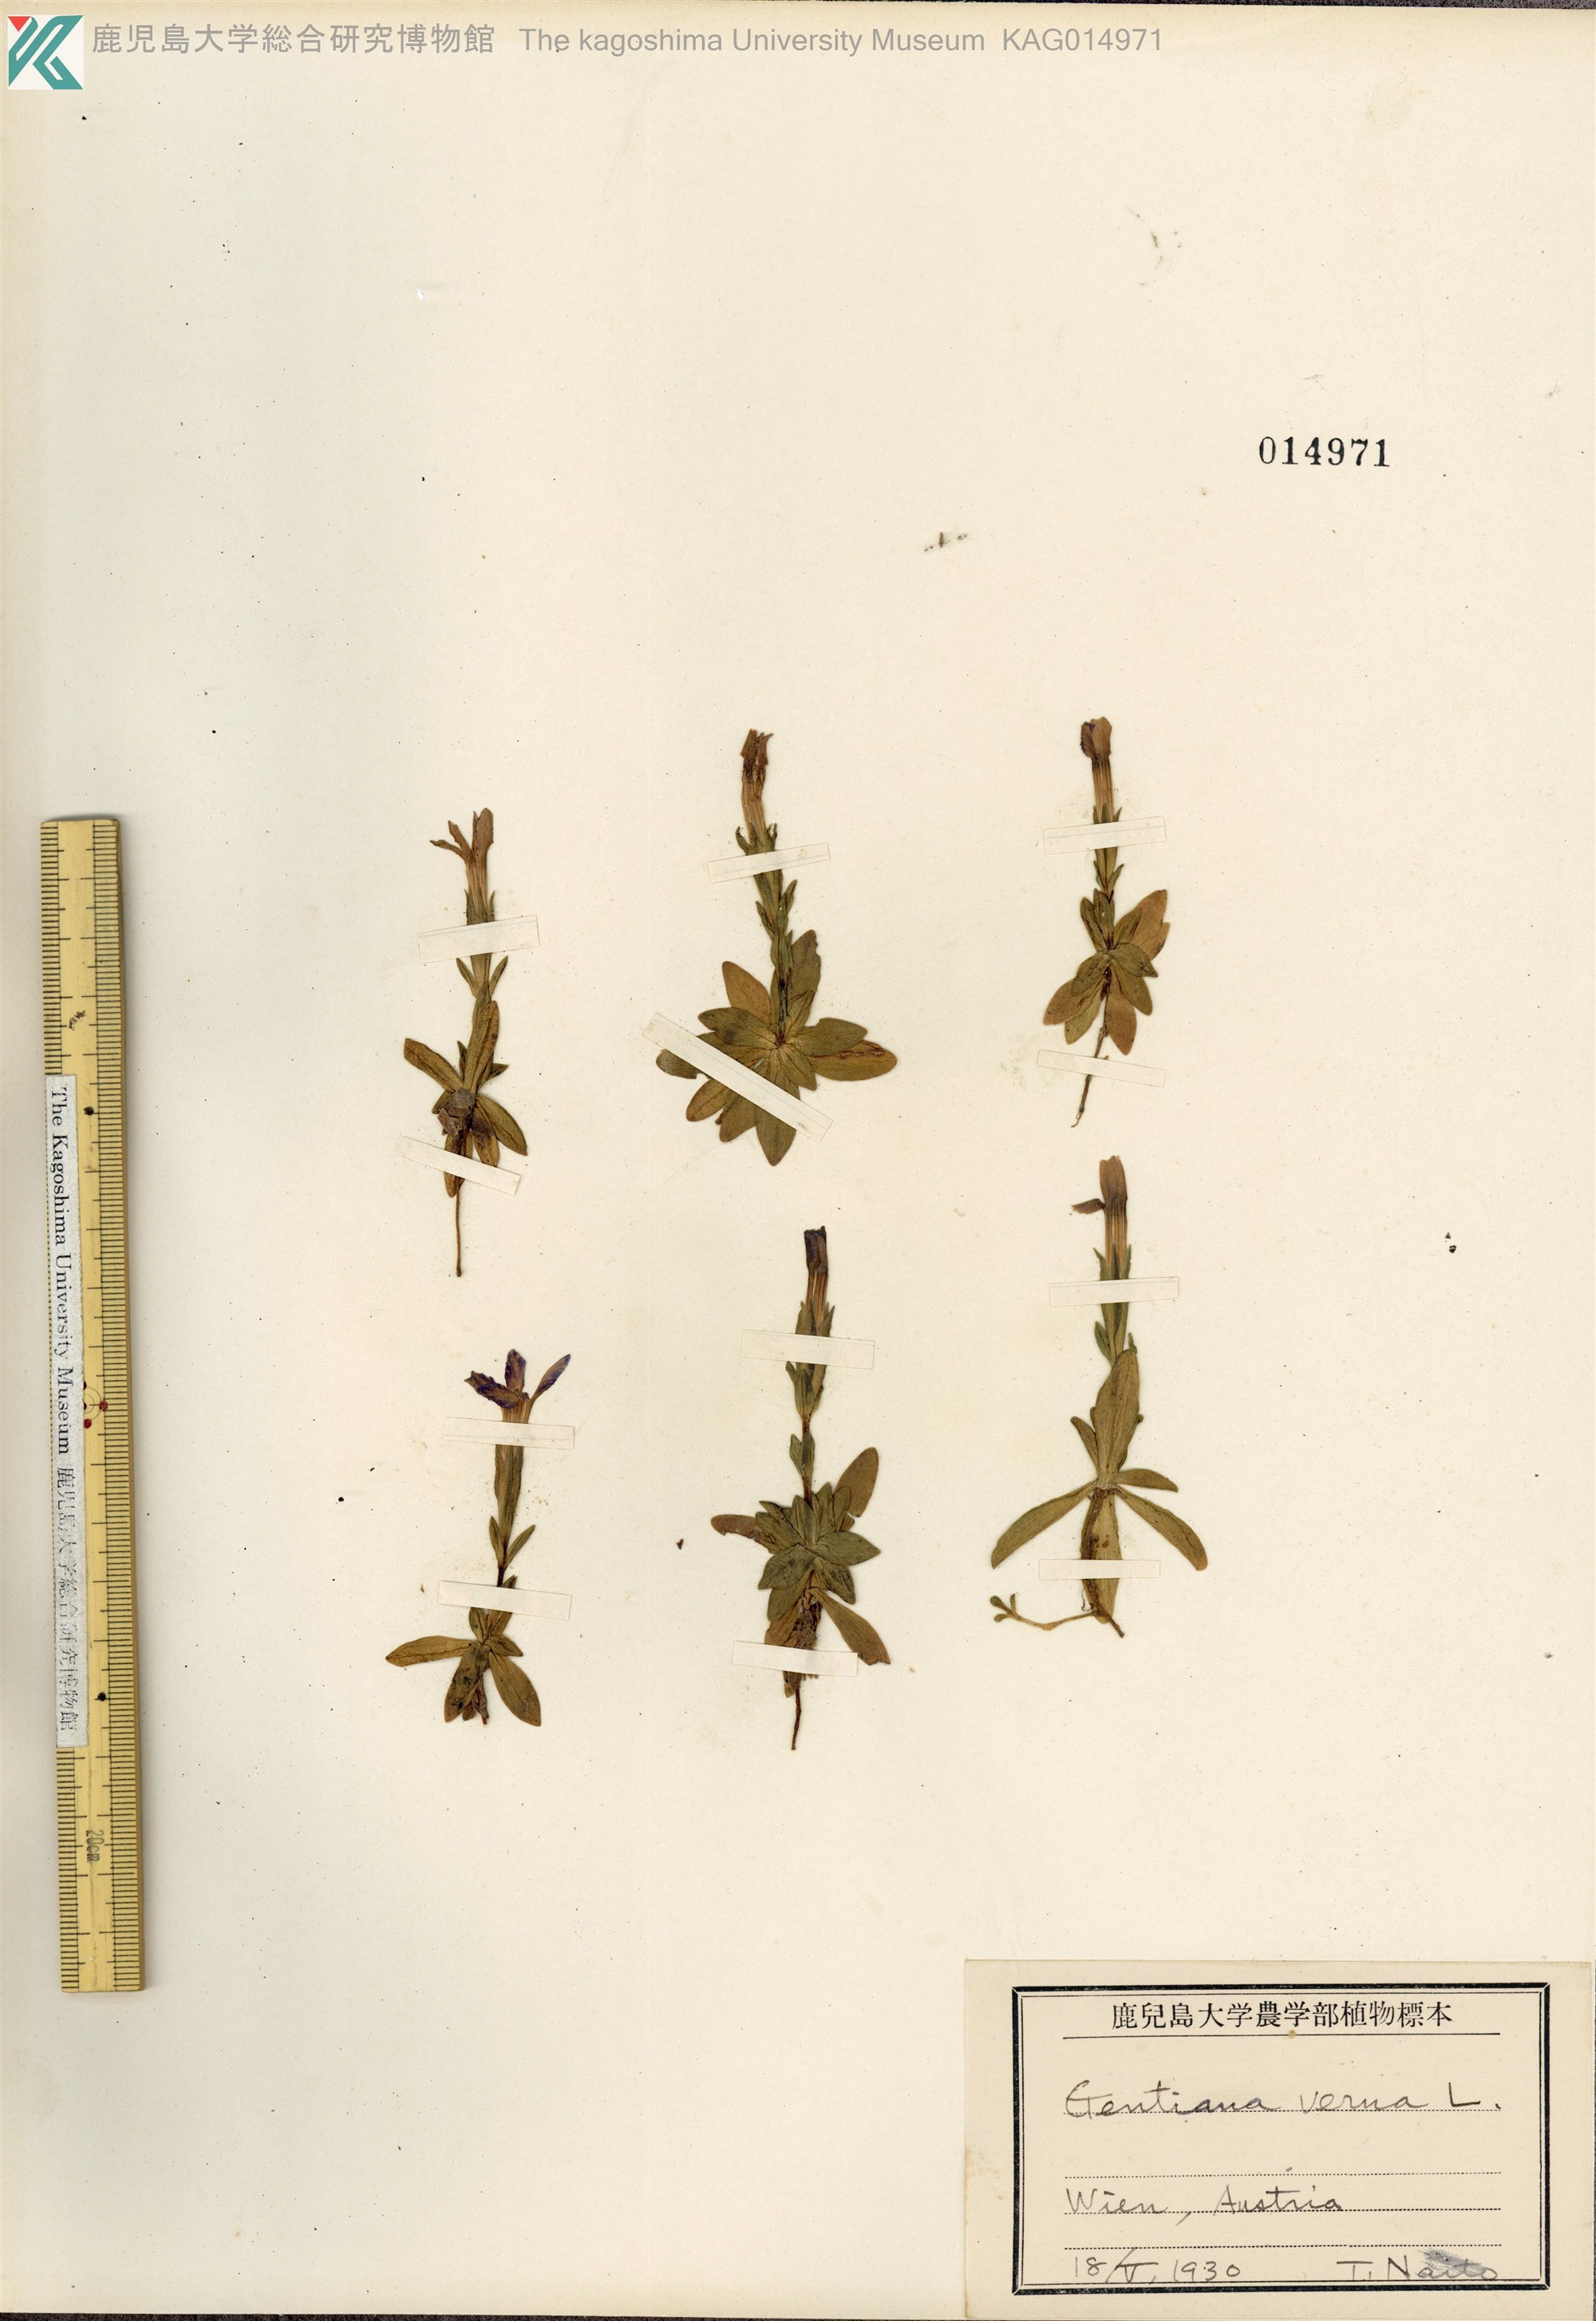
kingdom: Plantae
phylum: Tracheophyta
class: Magnoliopsida
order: Gentianales
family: Gentianaceae
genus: Gentiana
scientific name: Gentiana verna
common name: Spring gentian
